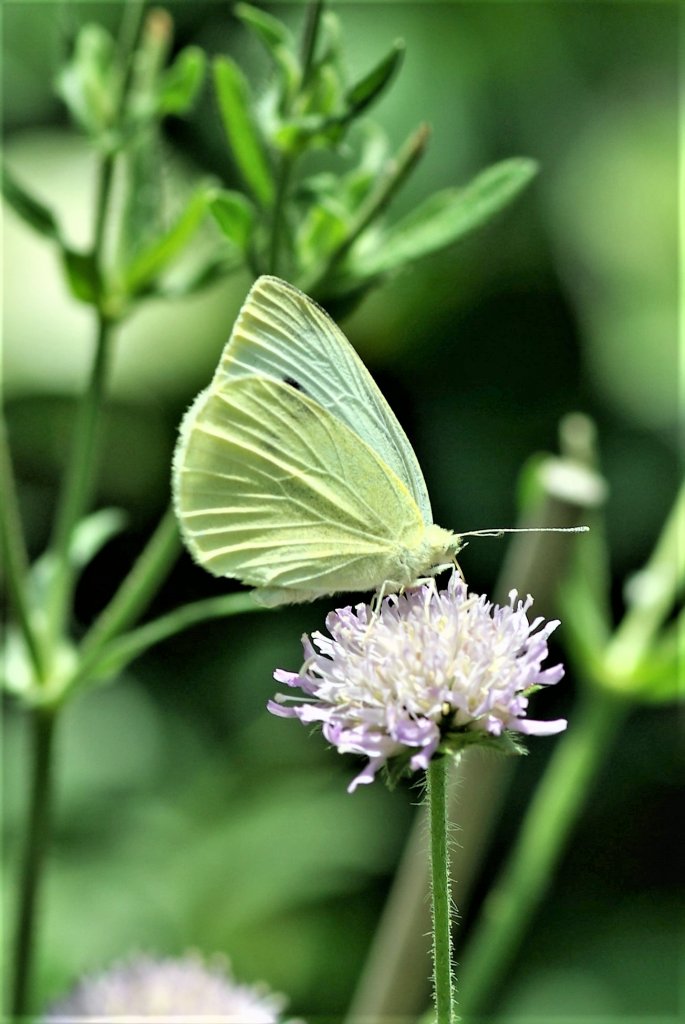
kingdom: Animalia
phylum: Arthropoda
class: Insecta
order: Lepidoptera
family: Pieridae
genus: Pieris
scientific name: Pieris rapae
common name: Cabbage White
